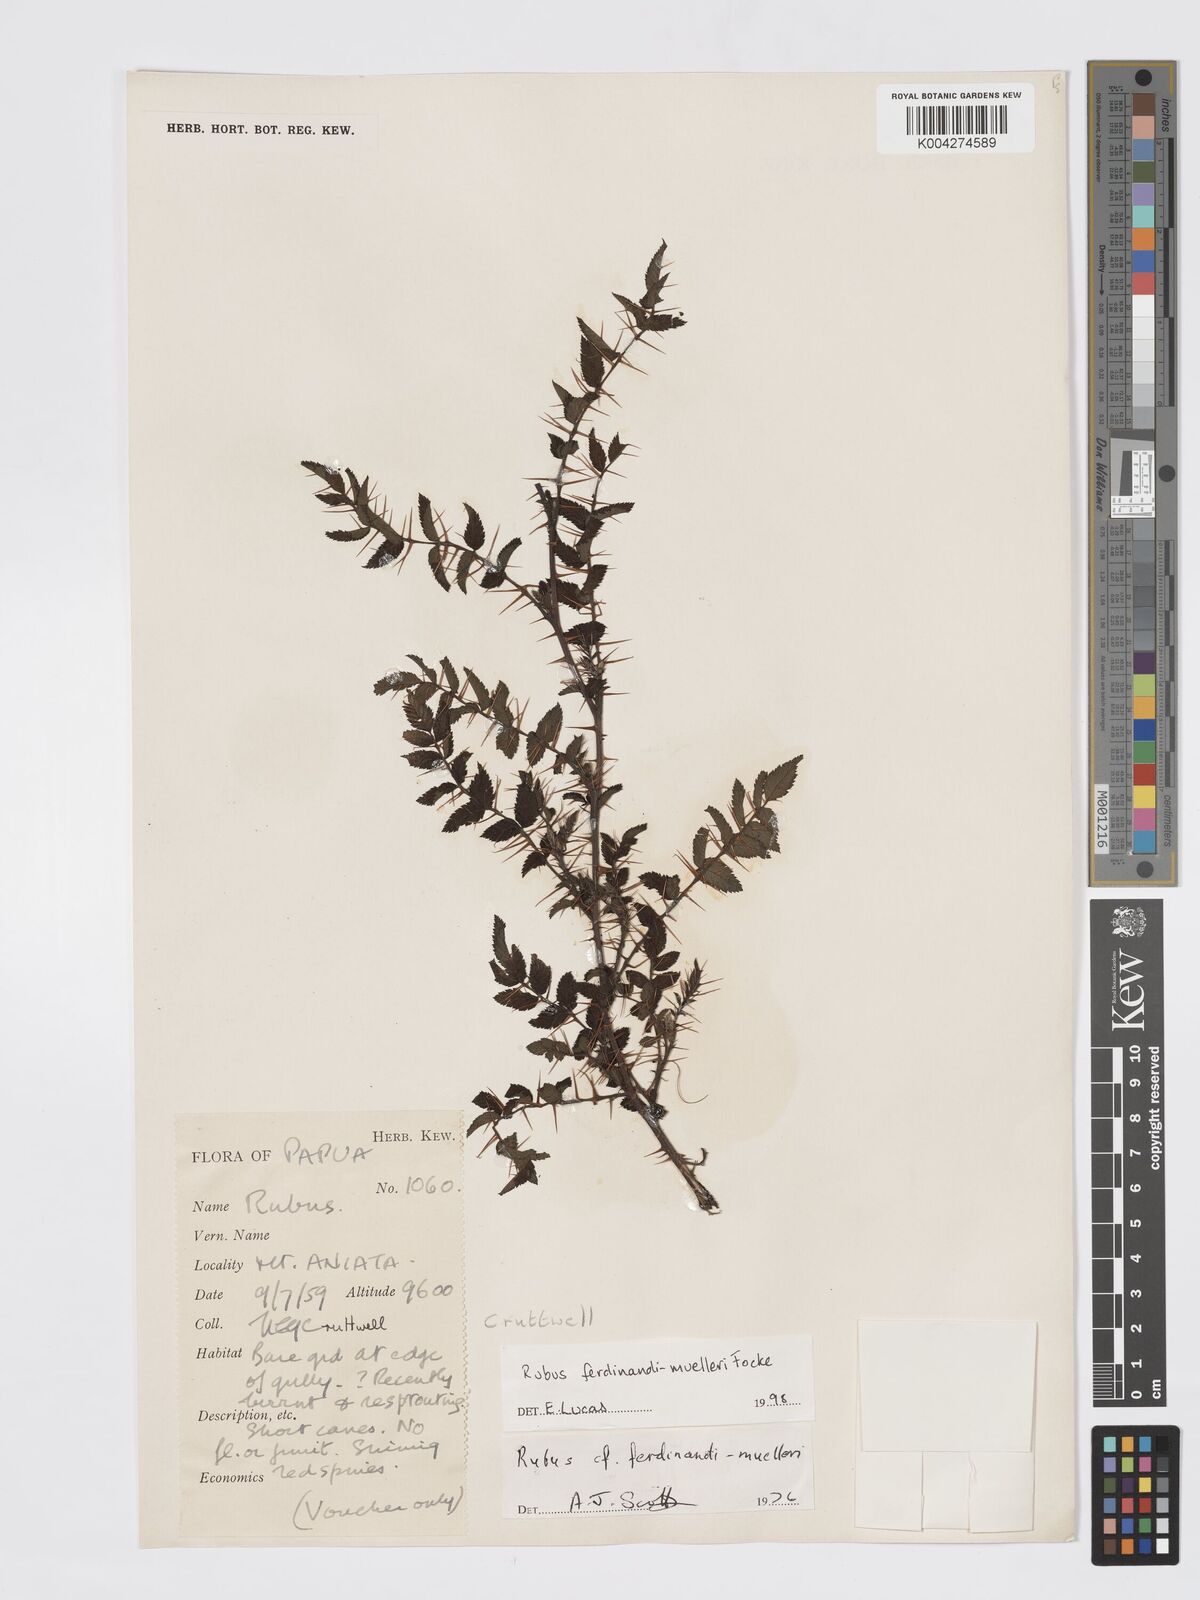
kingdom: Plantae
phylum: Tracheophyta
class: Magnoliopsida
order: Rosales
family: Rosaceae
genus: Rubus
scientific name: Rubus ferdinandimuelleri
